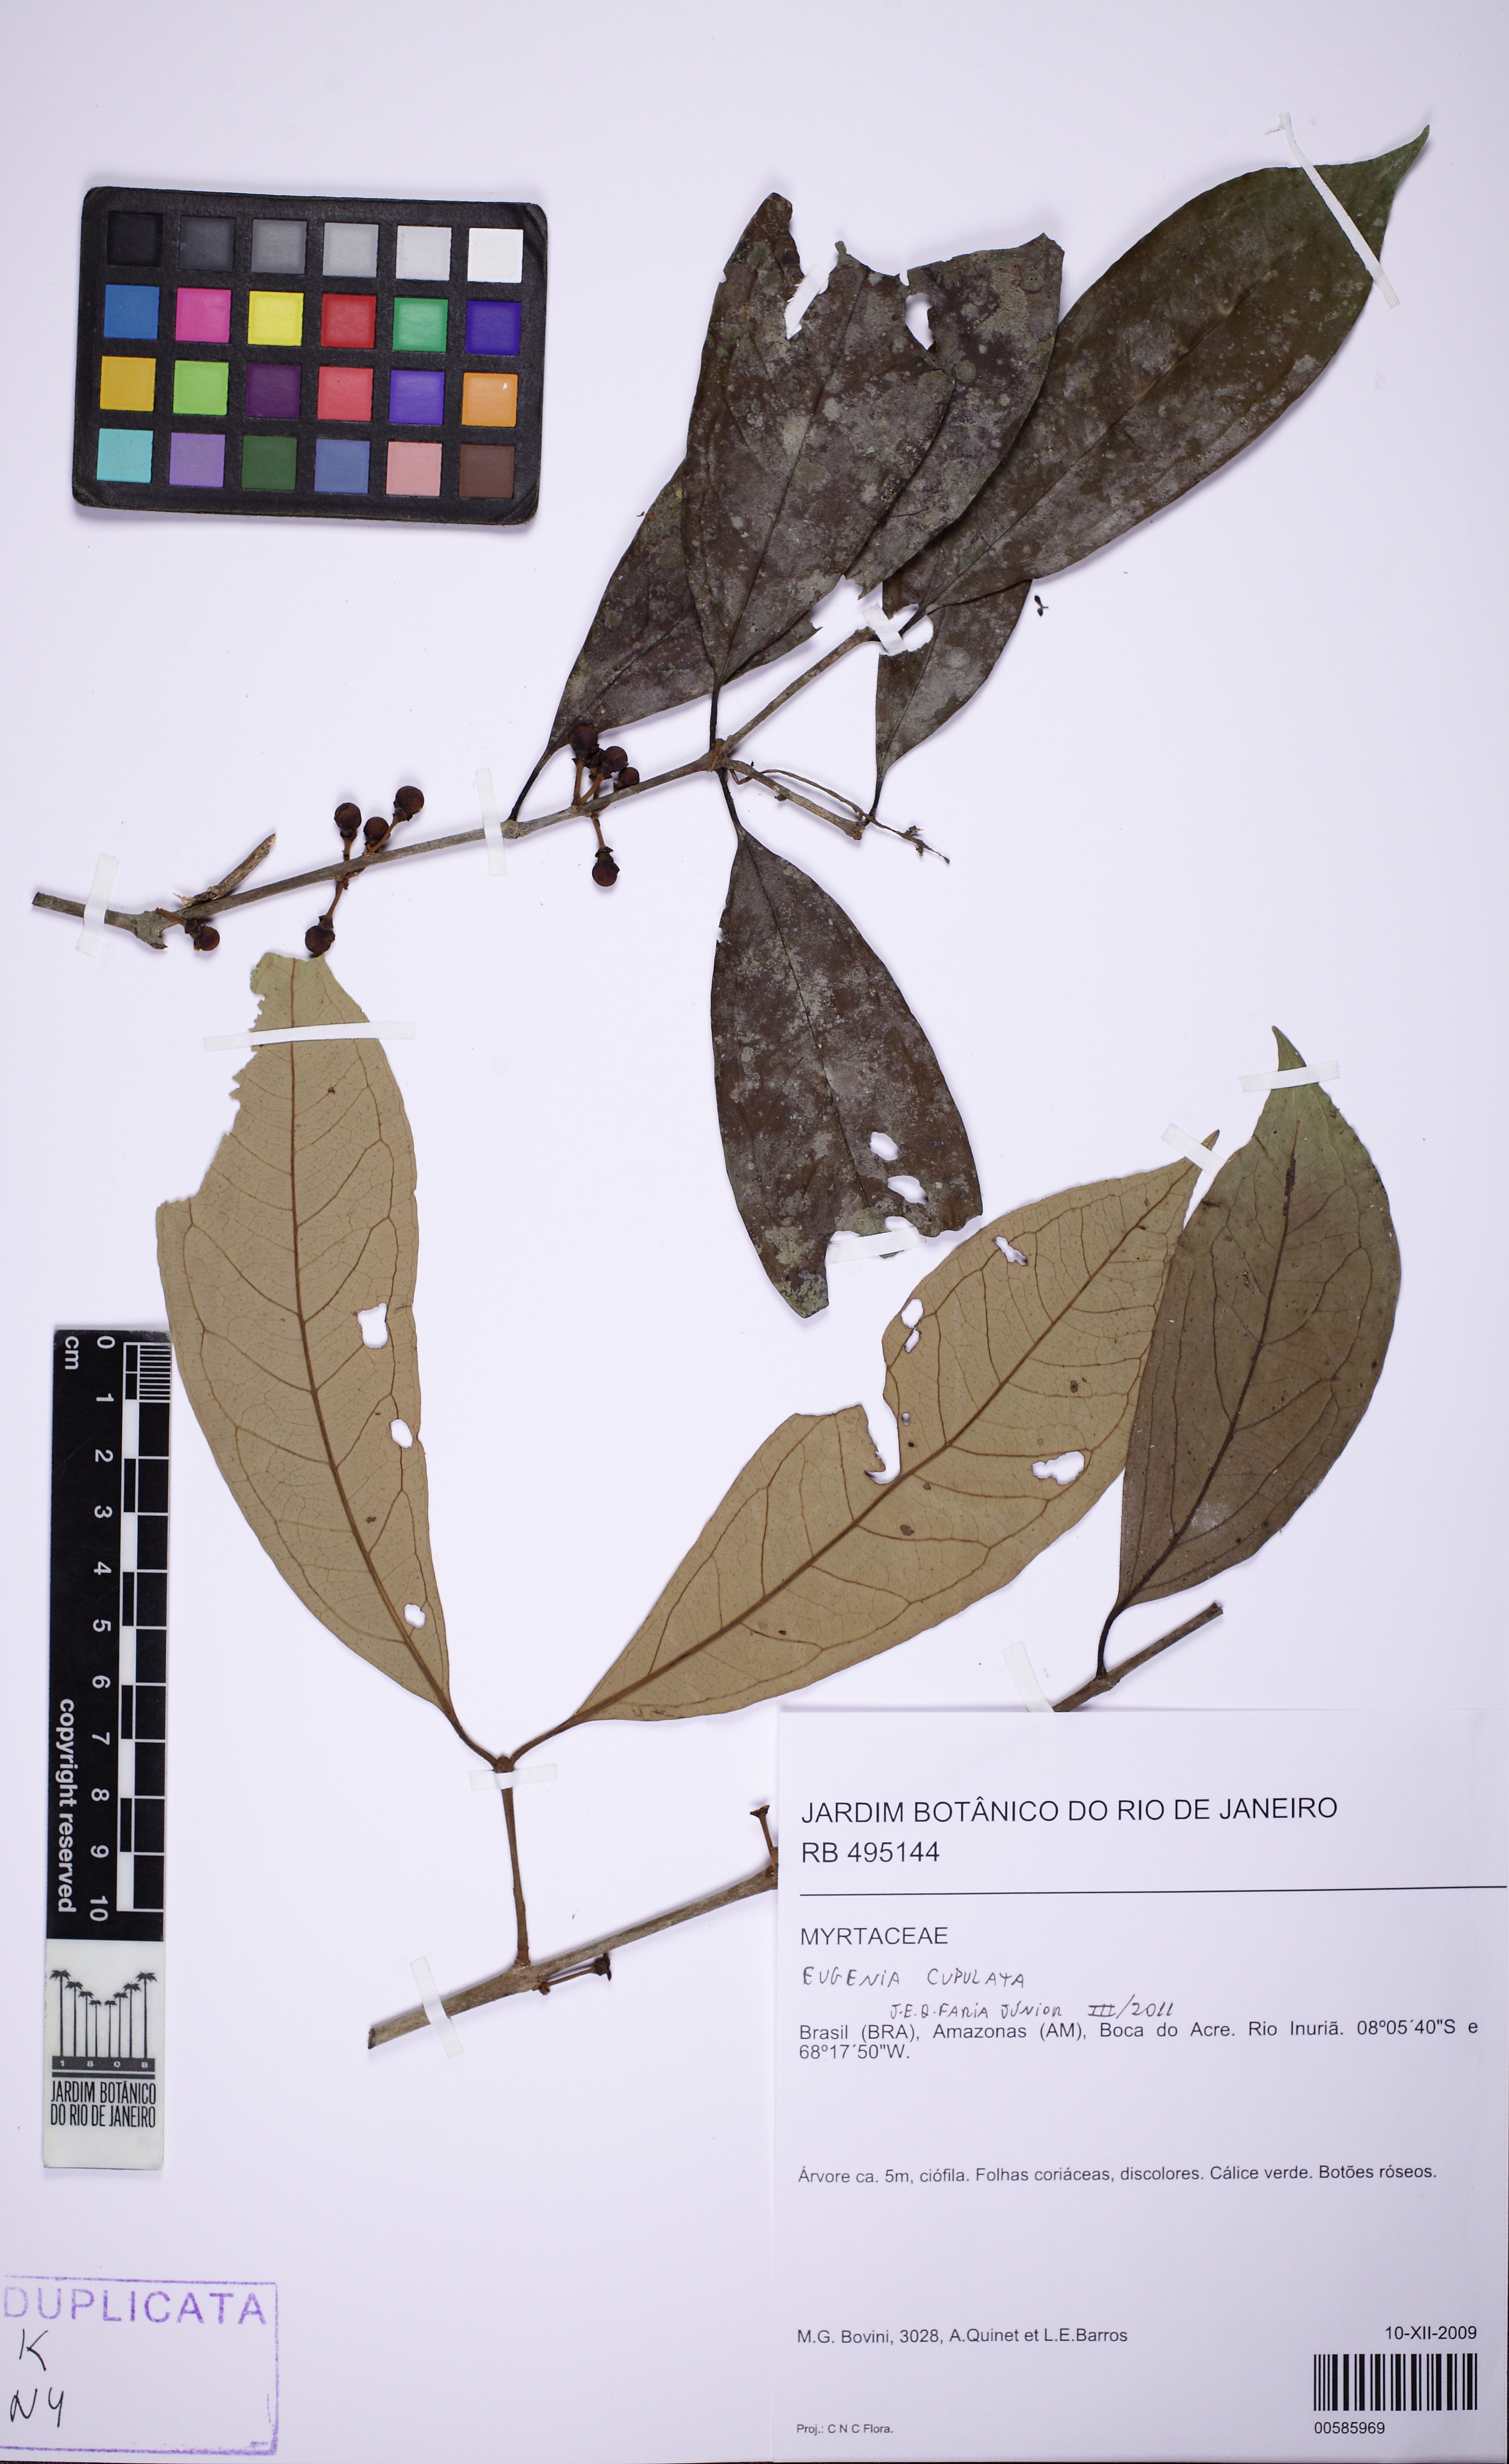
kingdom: Plantae
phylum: Tracheophyta
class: Magnoliopsida
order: Myrtales
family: Myrtaceae
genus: Eugenia
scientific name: Eugenia omissa
